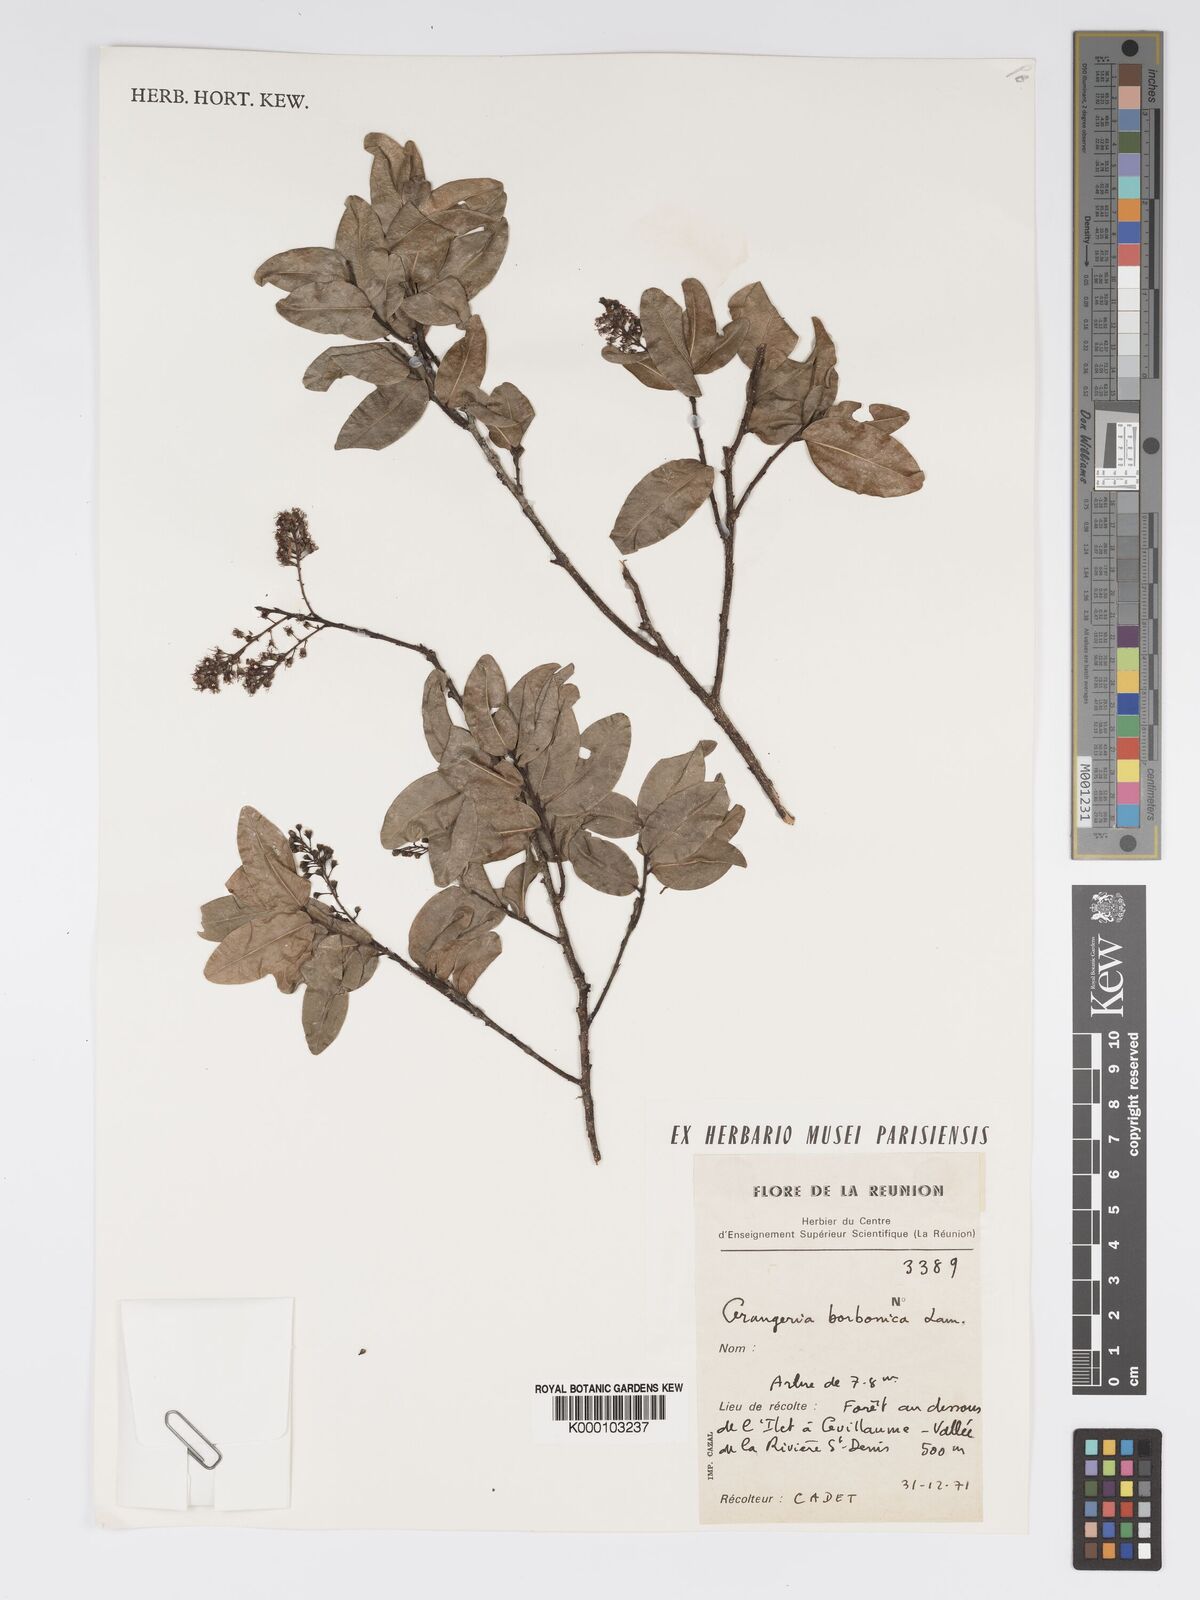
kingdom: Plantae
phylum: Tracheophyta
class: Magnoliopsida
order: Malpighiales
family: Chrysobalanaceae
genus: Grangeria
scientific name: Grangeria borbonica
